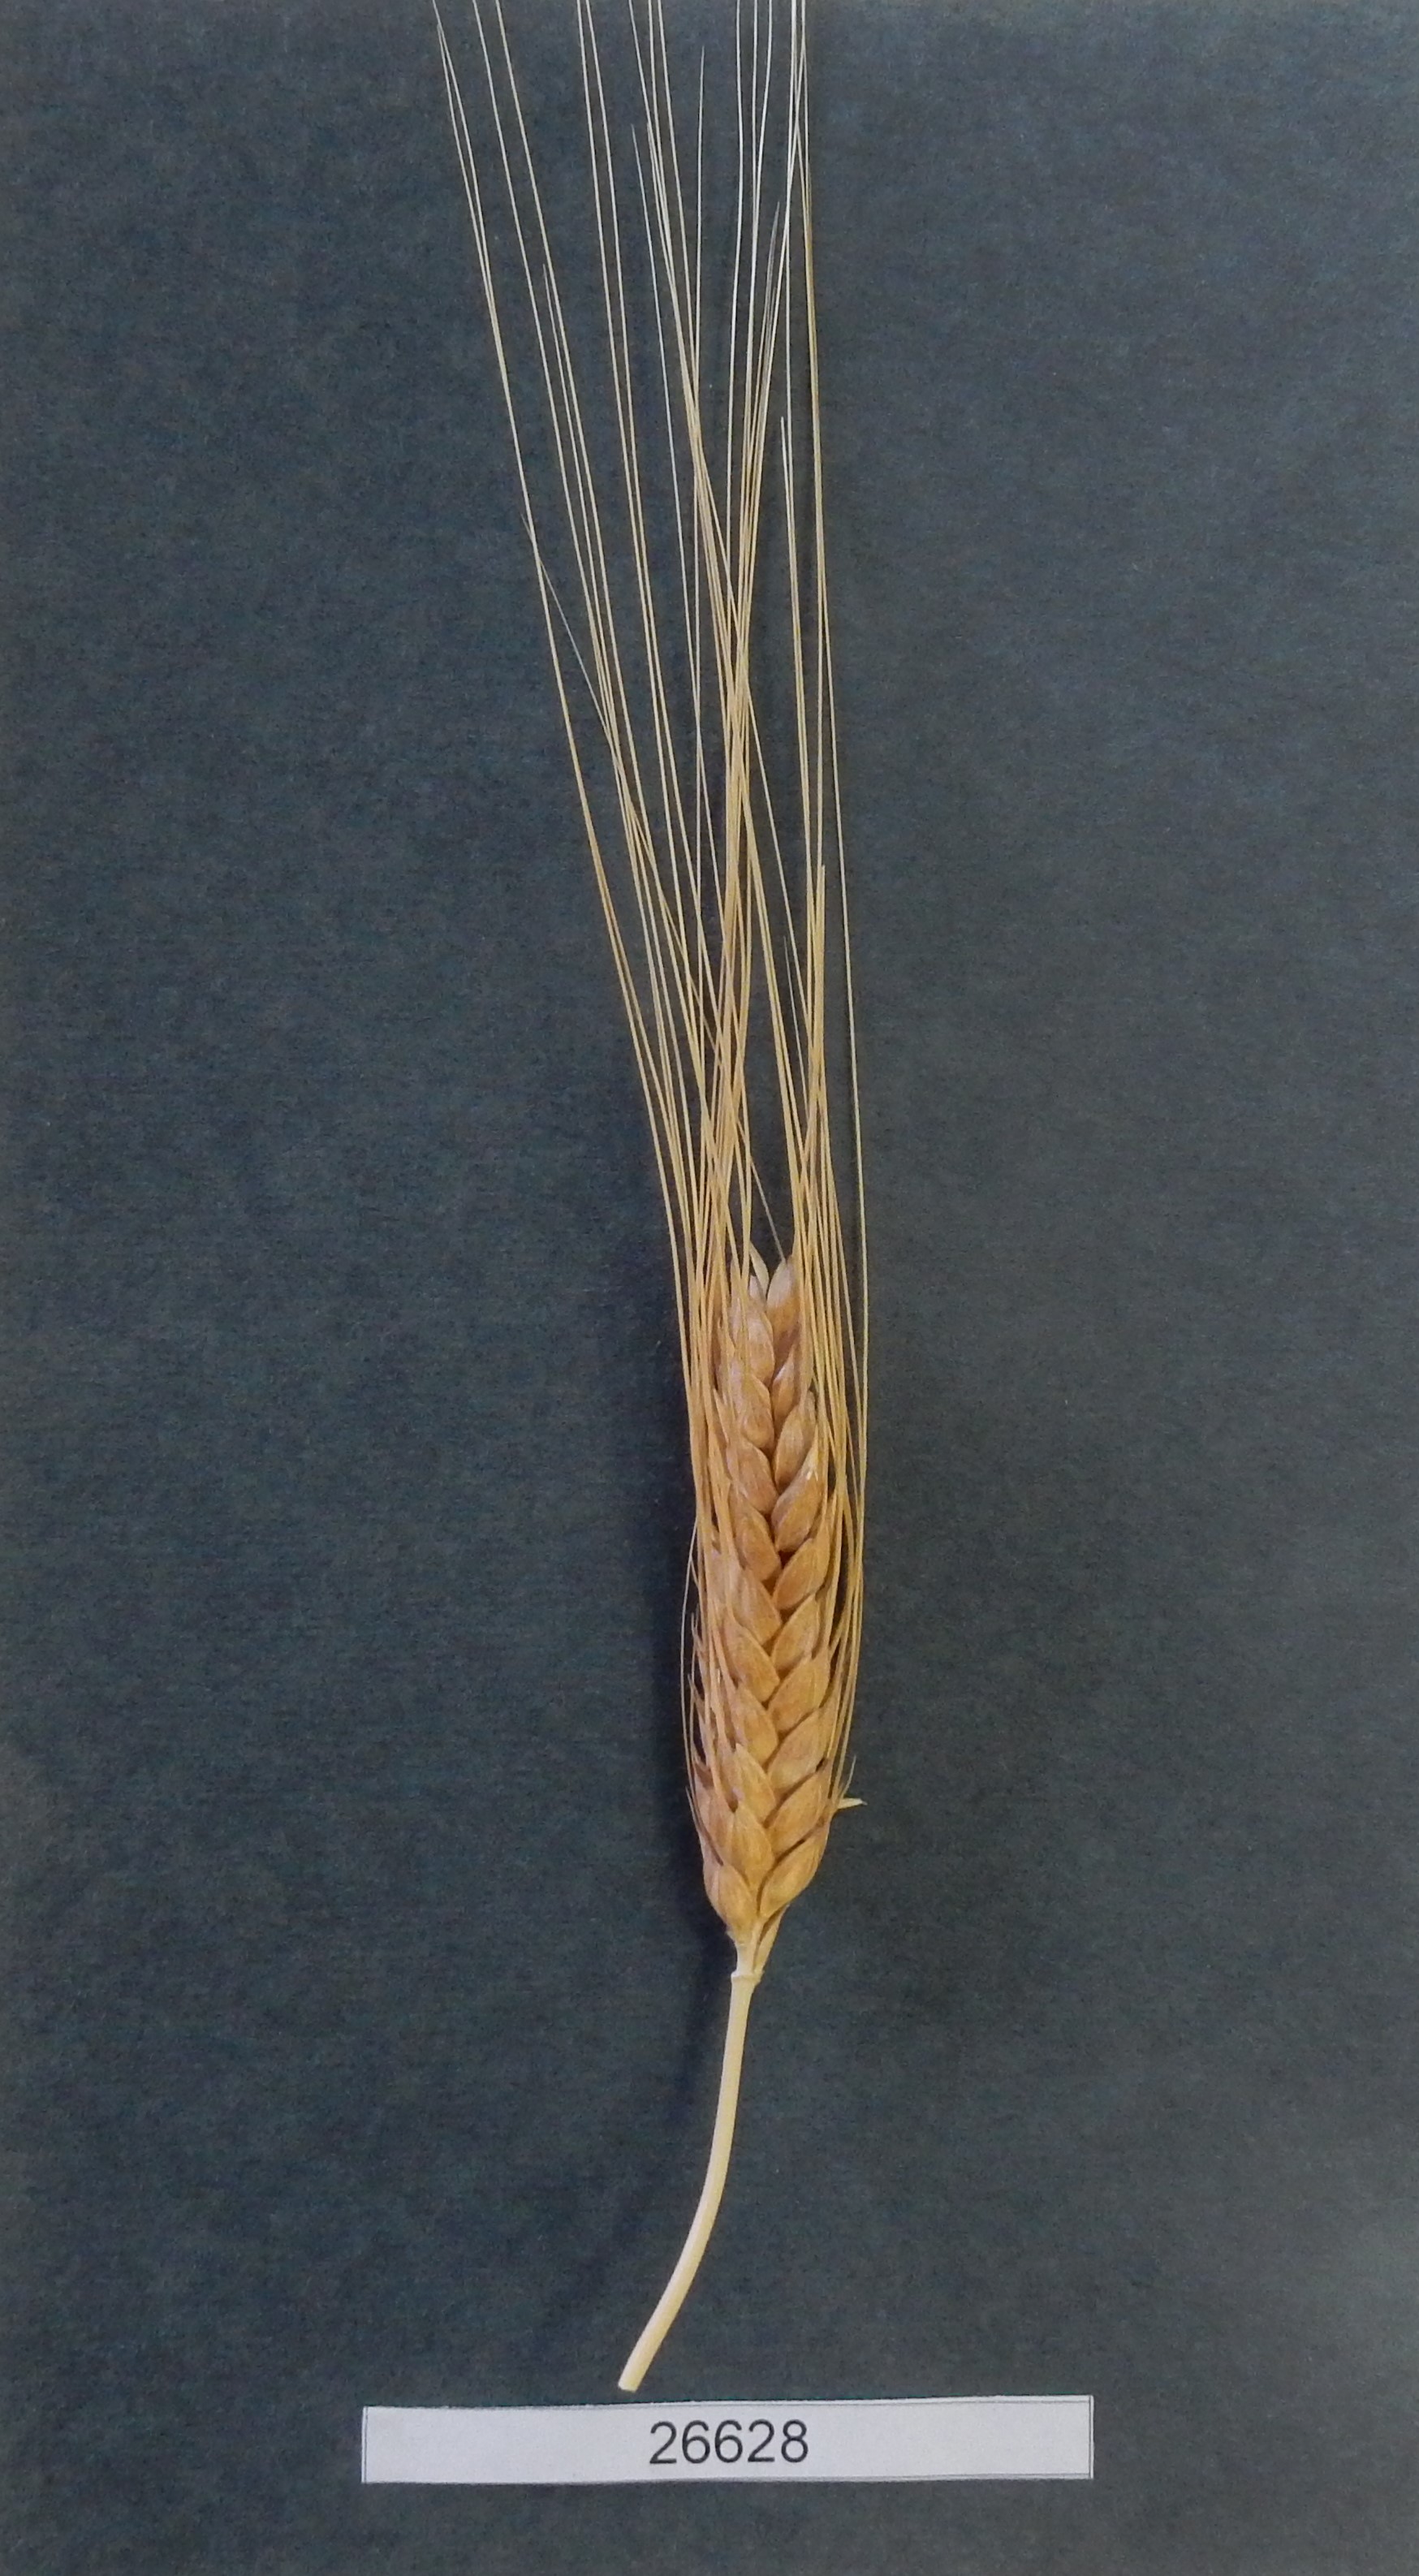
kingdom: Plantae
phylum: Tracheophyta
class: Liliopsida
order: Poales
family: Poaceae
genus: Triticum
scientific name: Triticum turgidum
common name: Wheat
